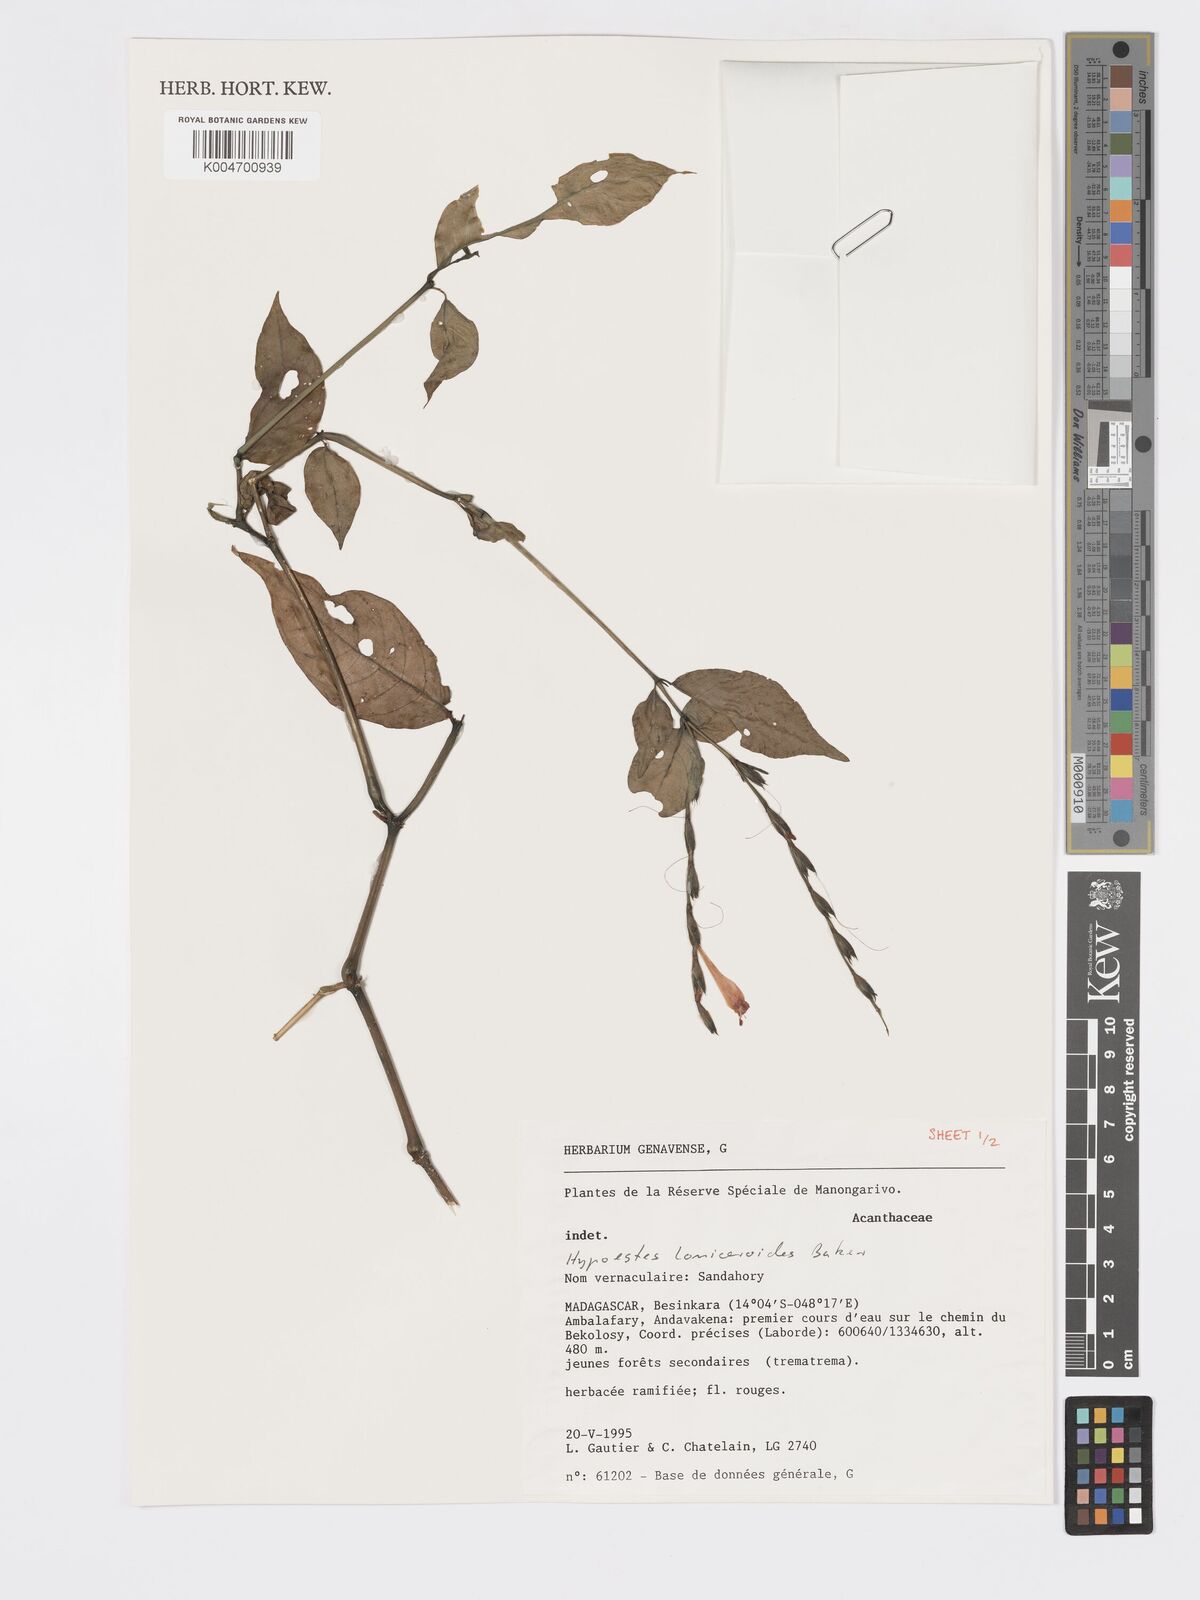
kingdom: Plantae
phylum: Tracheophyta
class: Magnoliopsida
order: Lamiales
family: Acanthaceae
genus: Hypoestes
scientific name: Hypoestes
